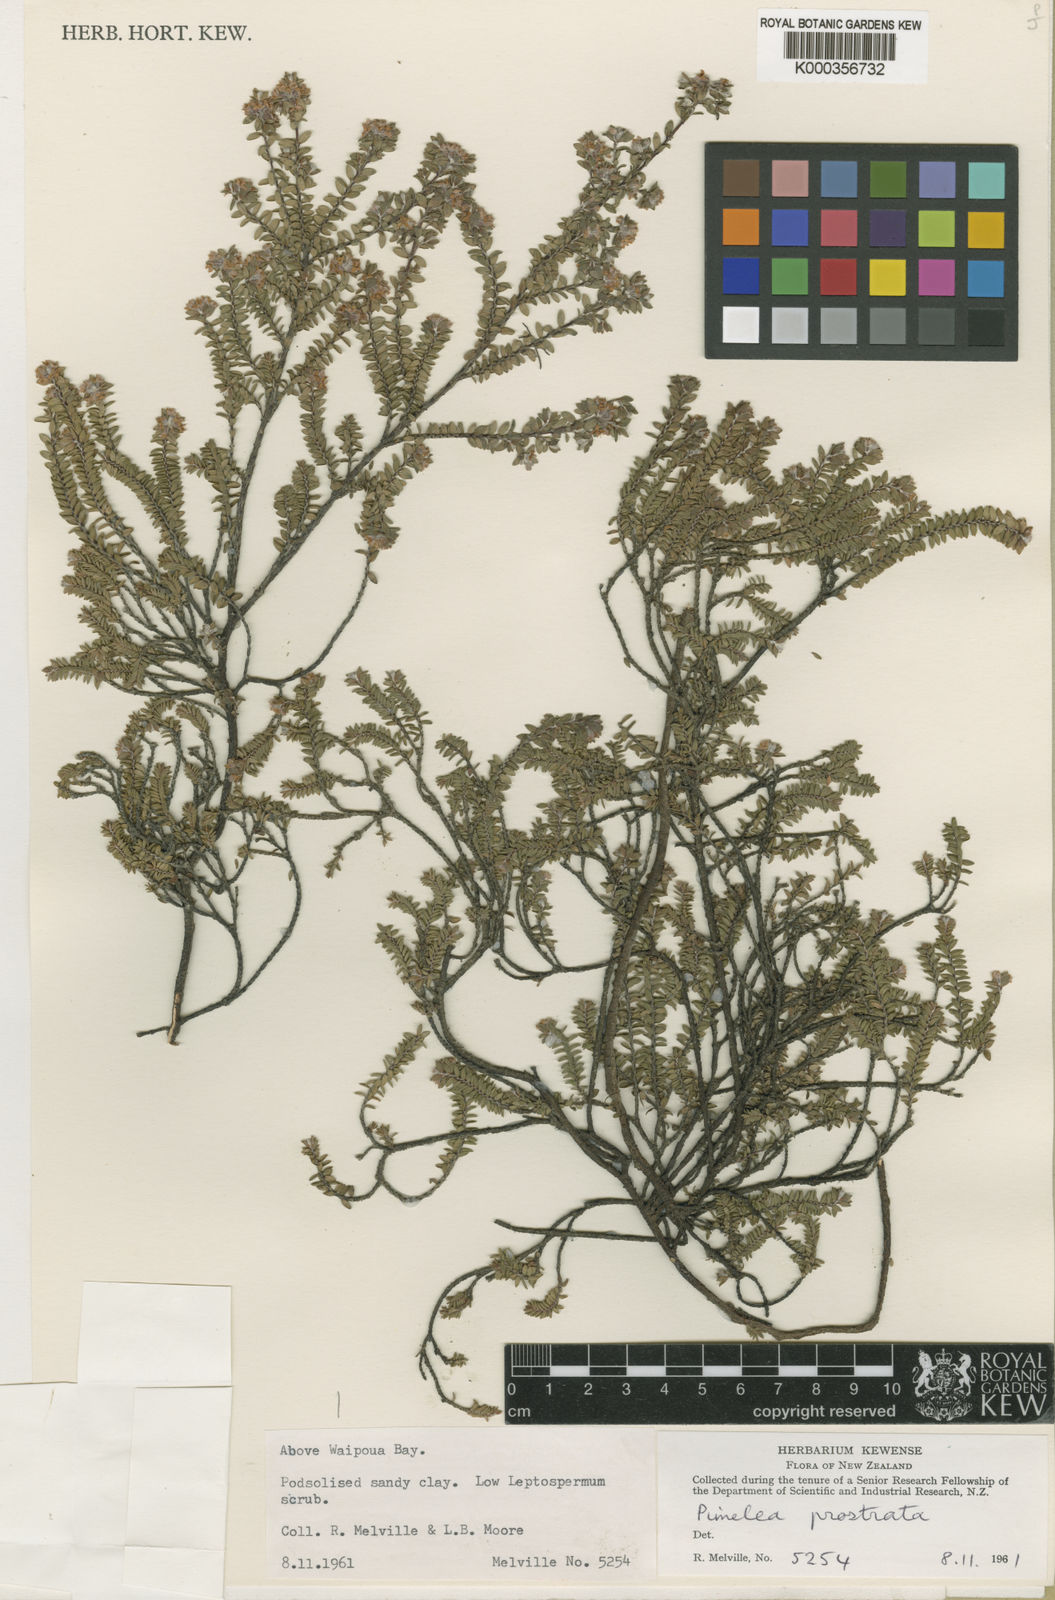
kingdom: Plantae
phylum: Tracheophyta
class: Magnoliopsida
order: Malvales
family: Thymelaeaceae
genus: Pimelea
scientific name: Pimelea
